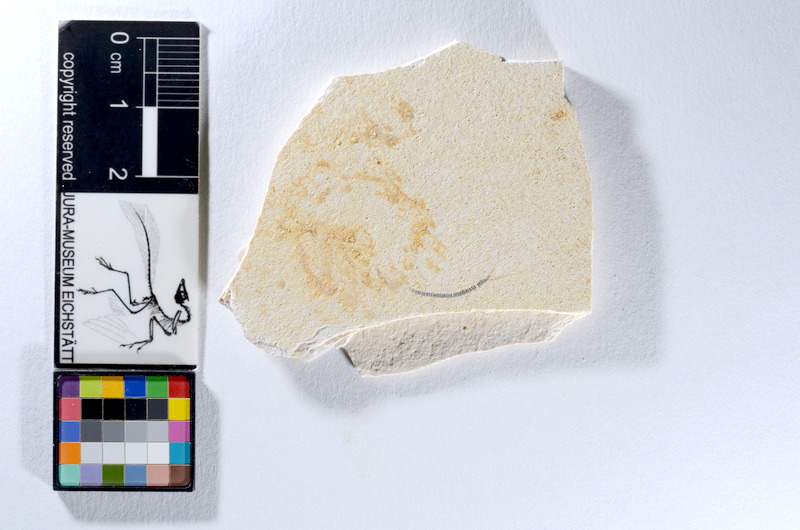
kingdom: Animalia
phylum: Chordata
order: Salmoniformes
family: Orthogonikleithridae
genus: Orthogonikleithrus
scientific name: Orthogonikleithrus hoelli
